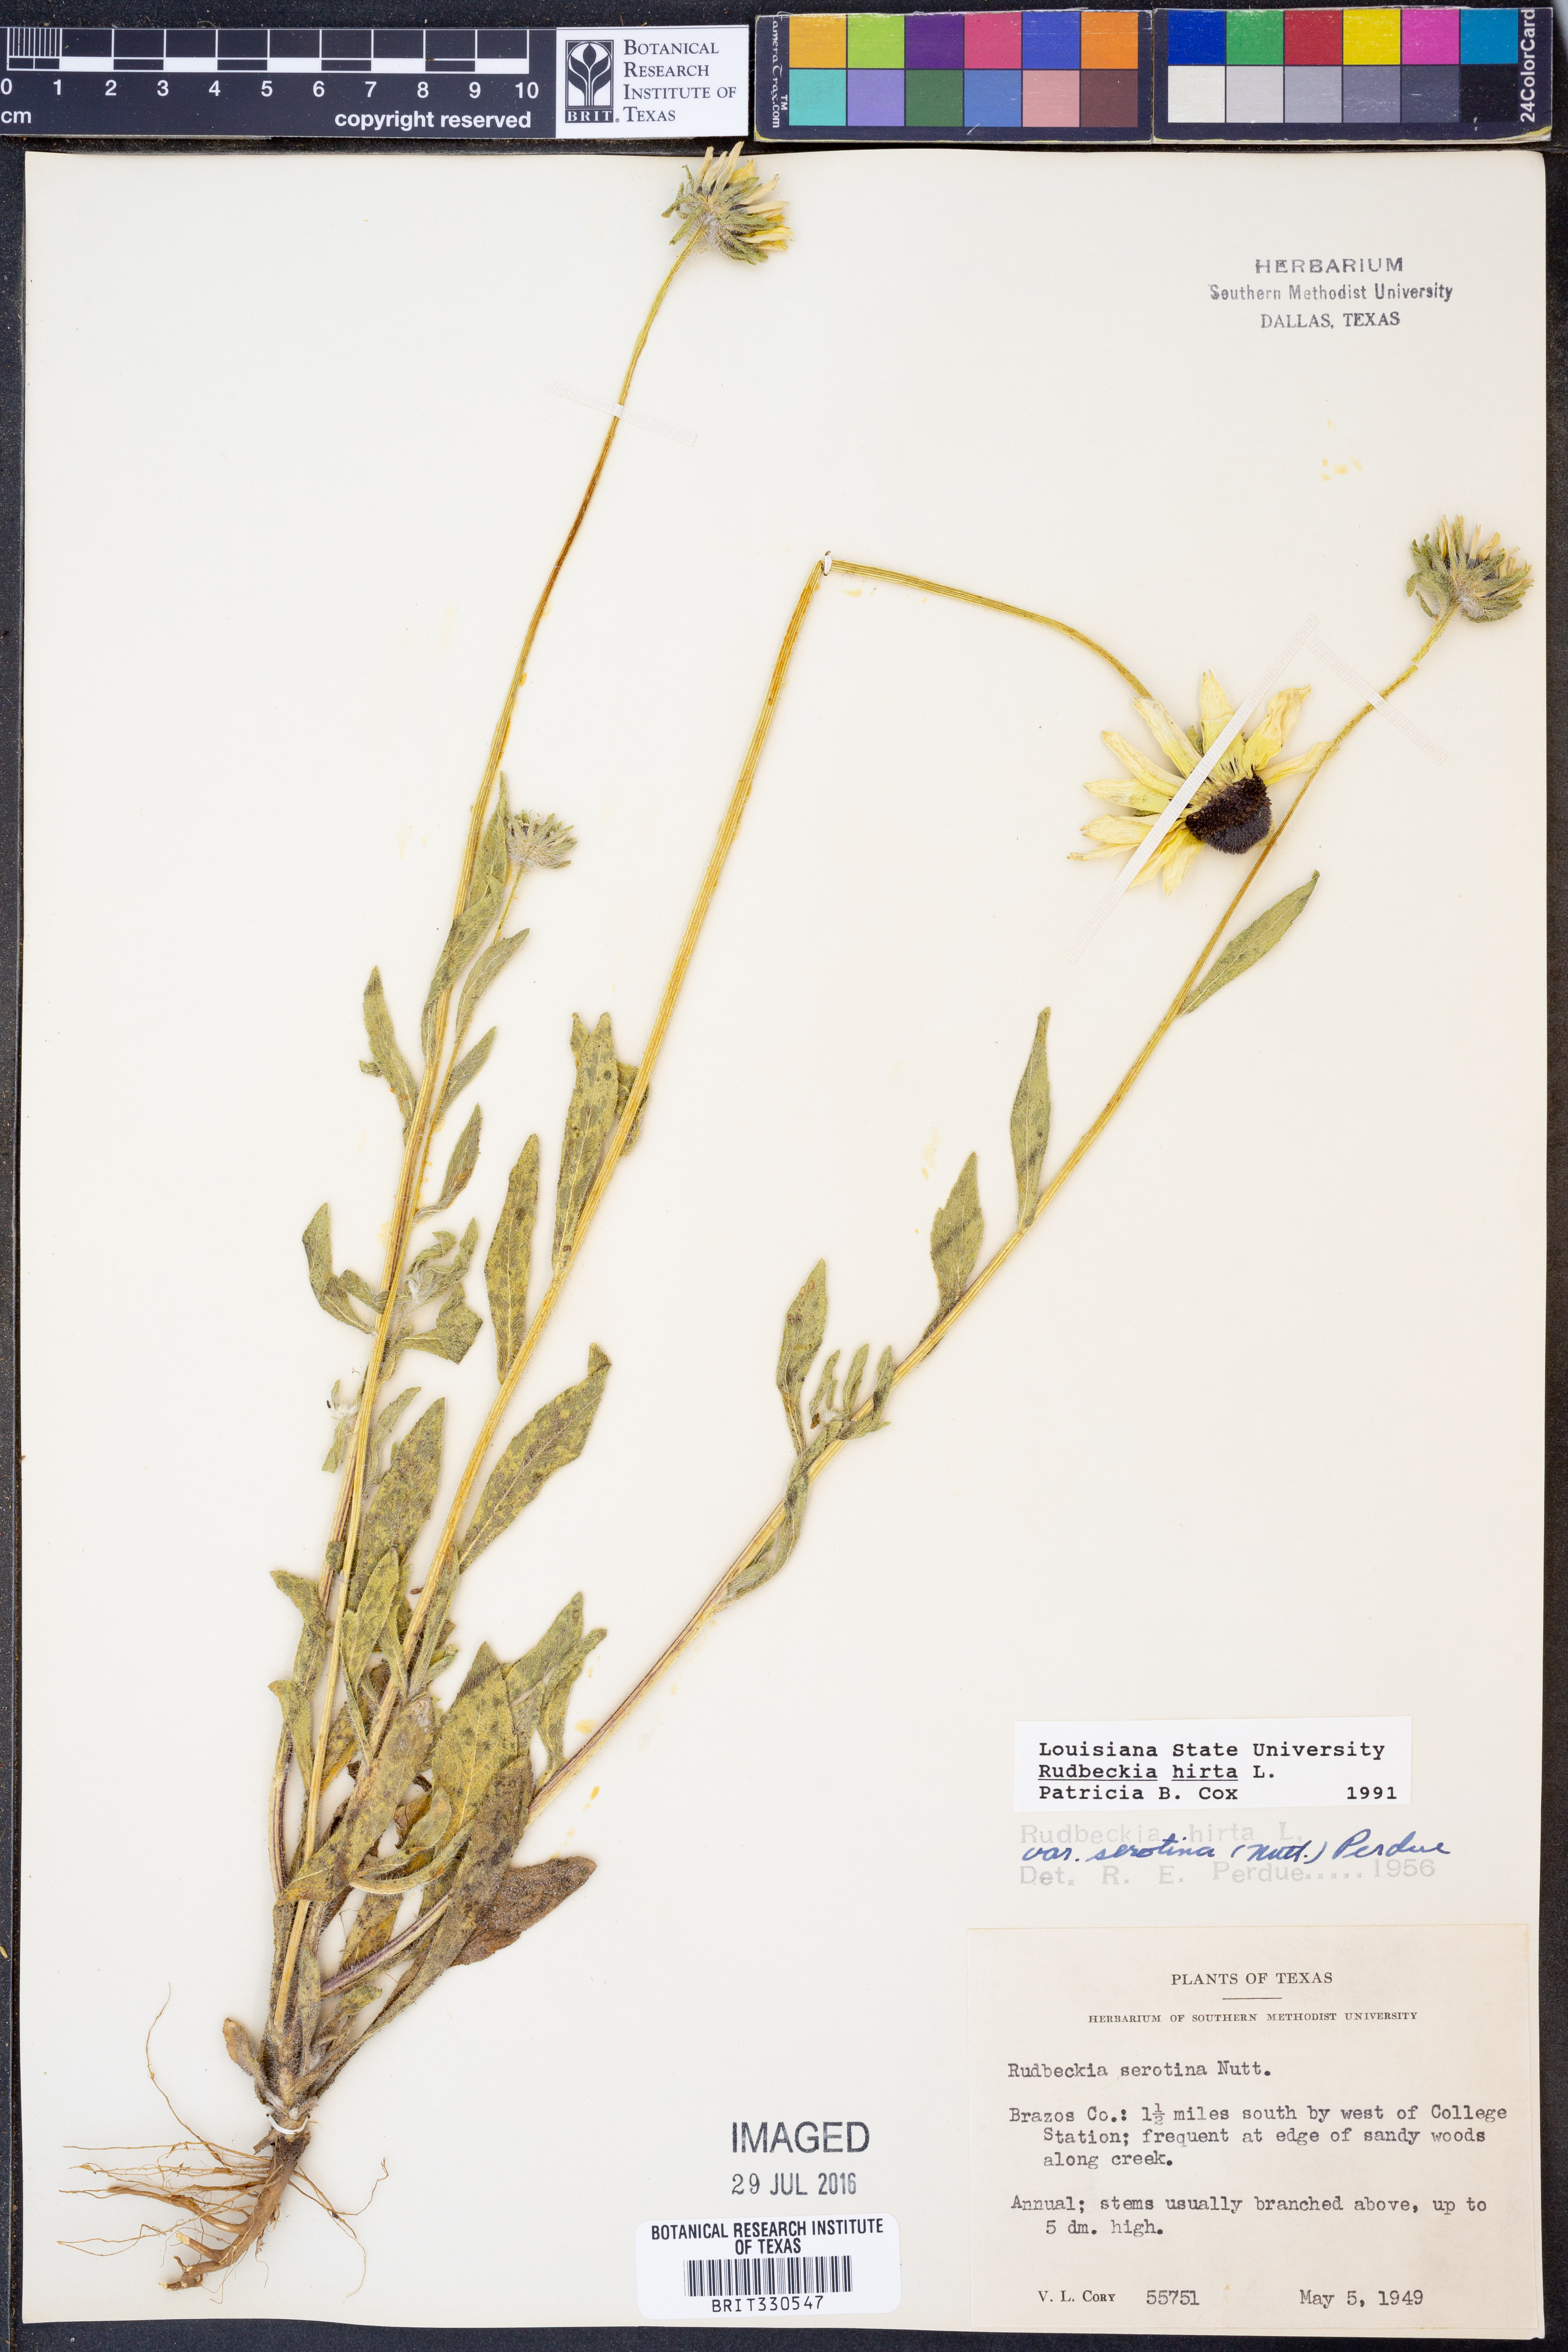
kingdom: Plantae
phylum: Tracheophyta
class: Magnoliopsida
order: Asterales
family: Asteraceae
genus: Rudbeckia
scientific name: Rudbeckia hirta
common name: Black-eyed-susan
